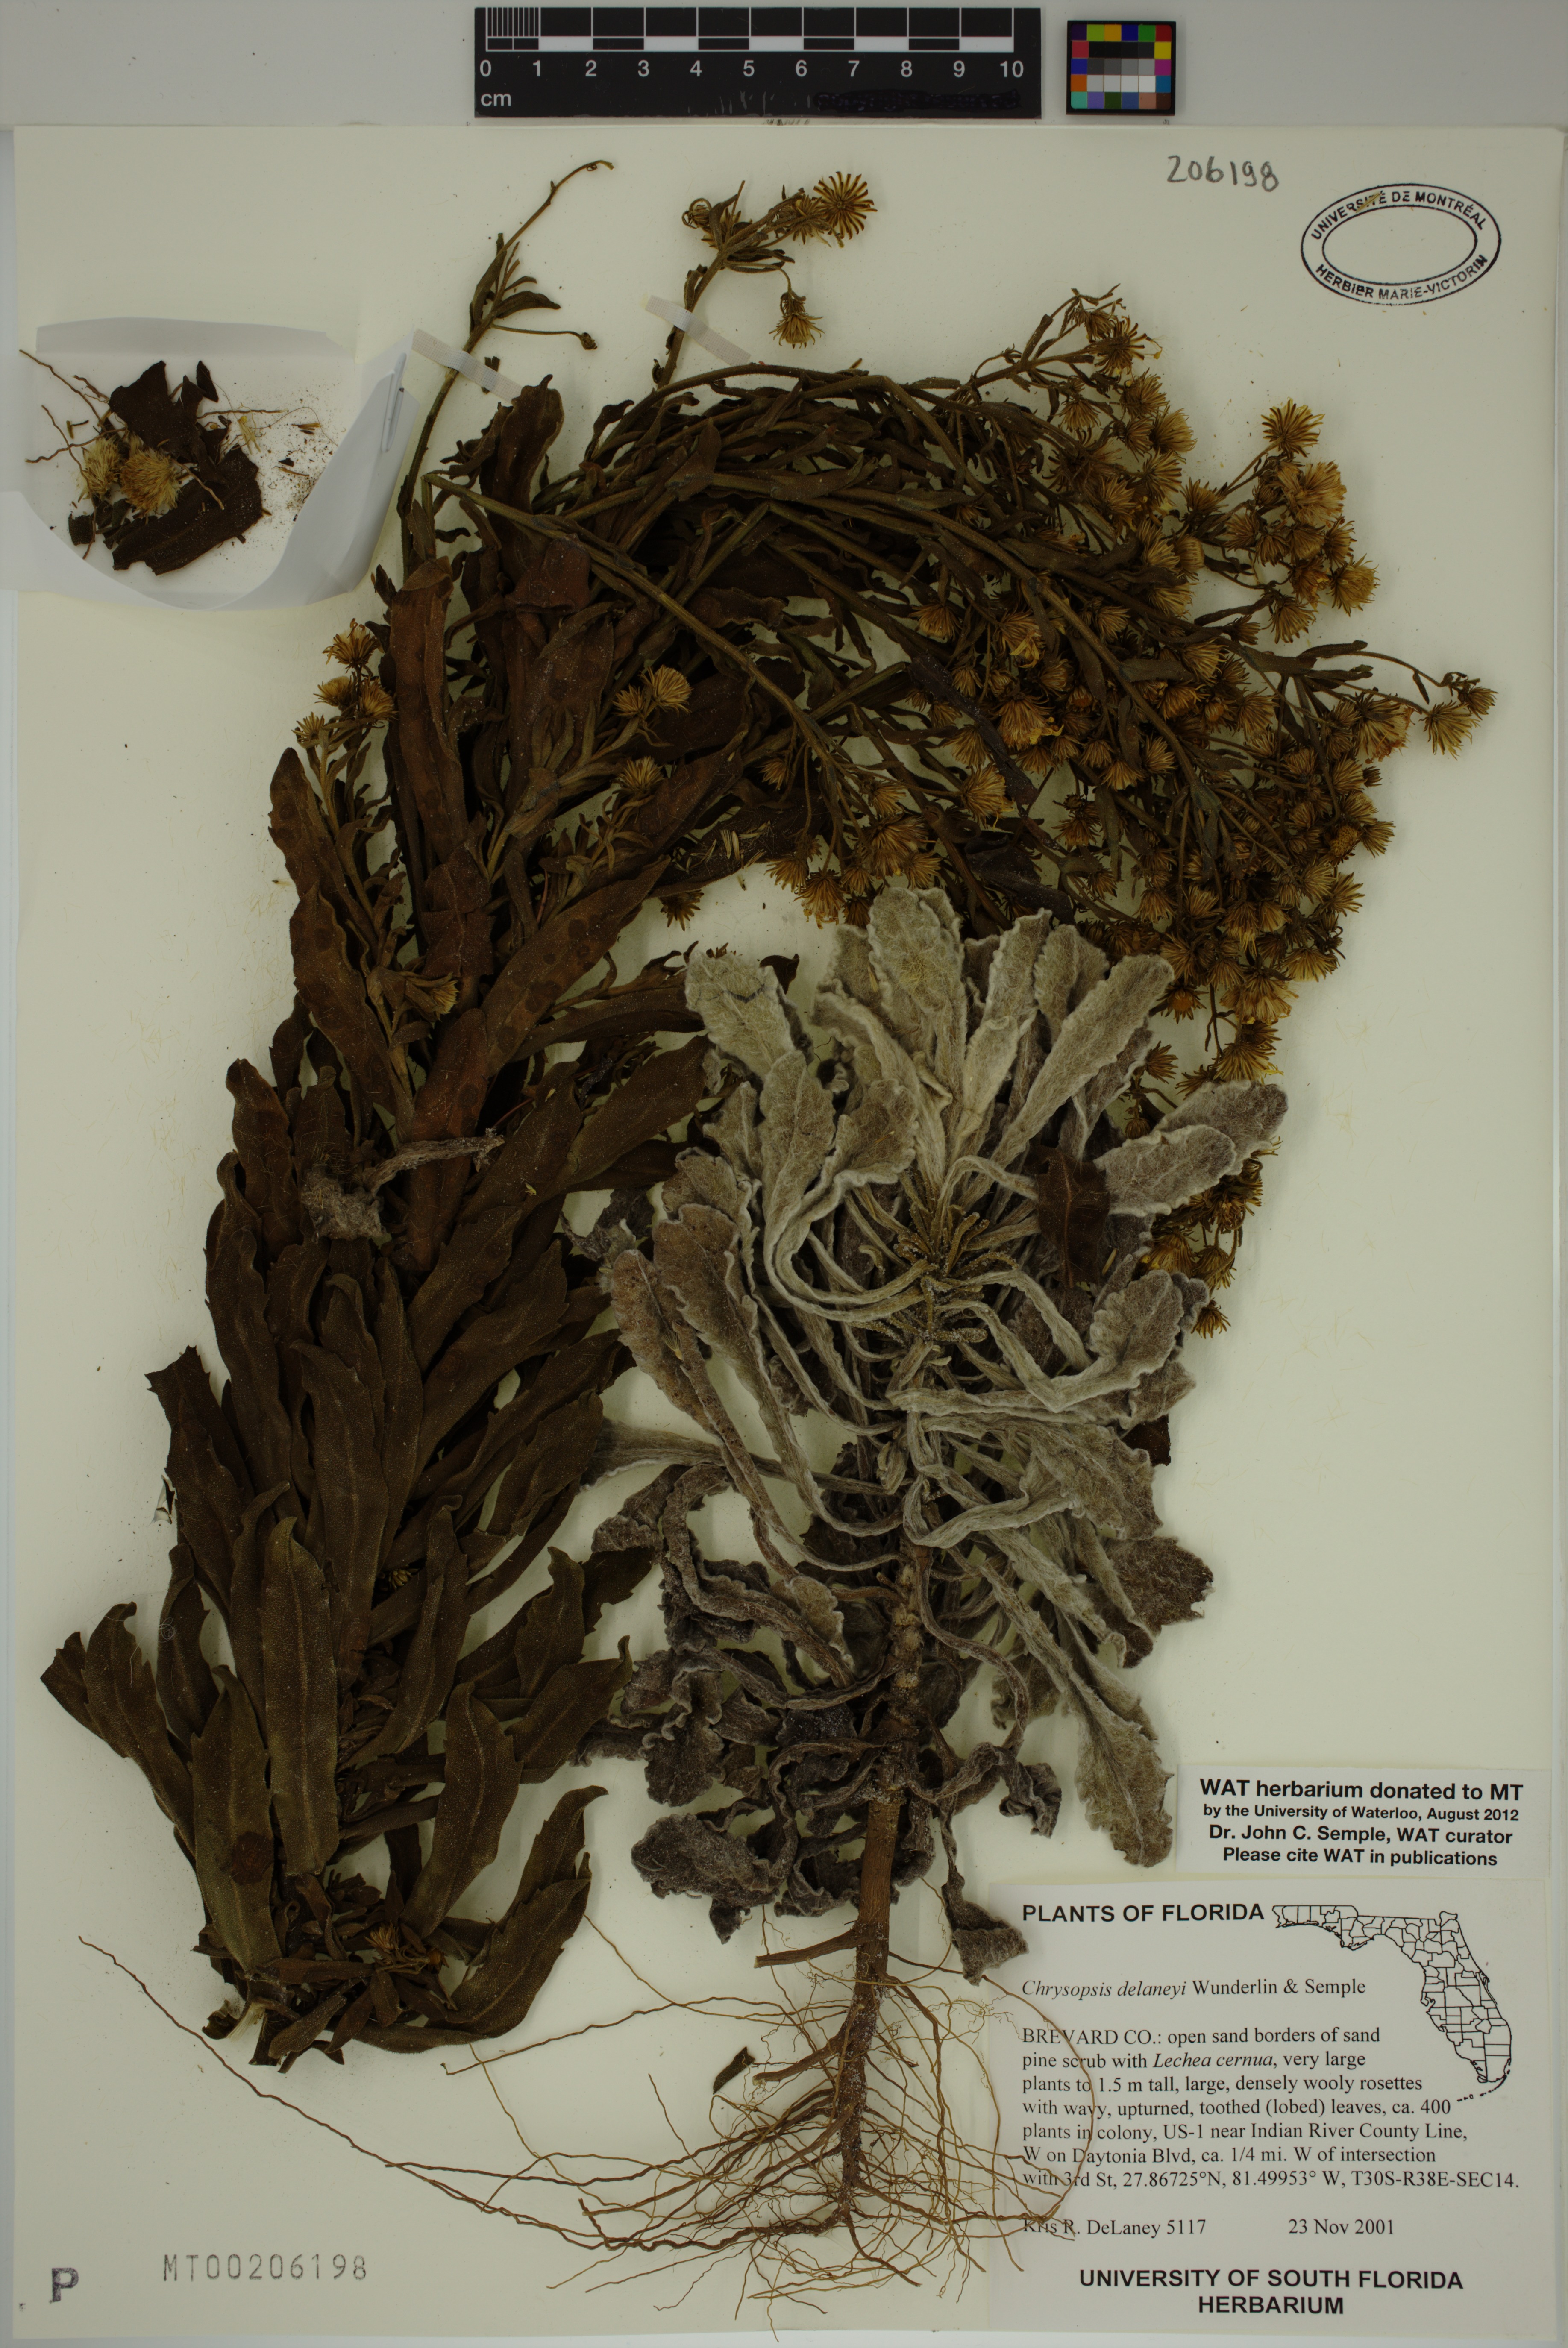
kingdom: Plantae
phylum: Tracheophyta
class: Magnoliopsida
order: Asterales
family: Asteraceae
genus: Chrysopsis
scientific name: Chrysopsis delaneyi
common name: Delaney's goldenaster
